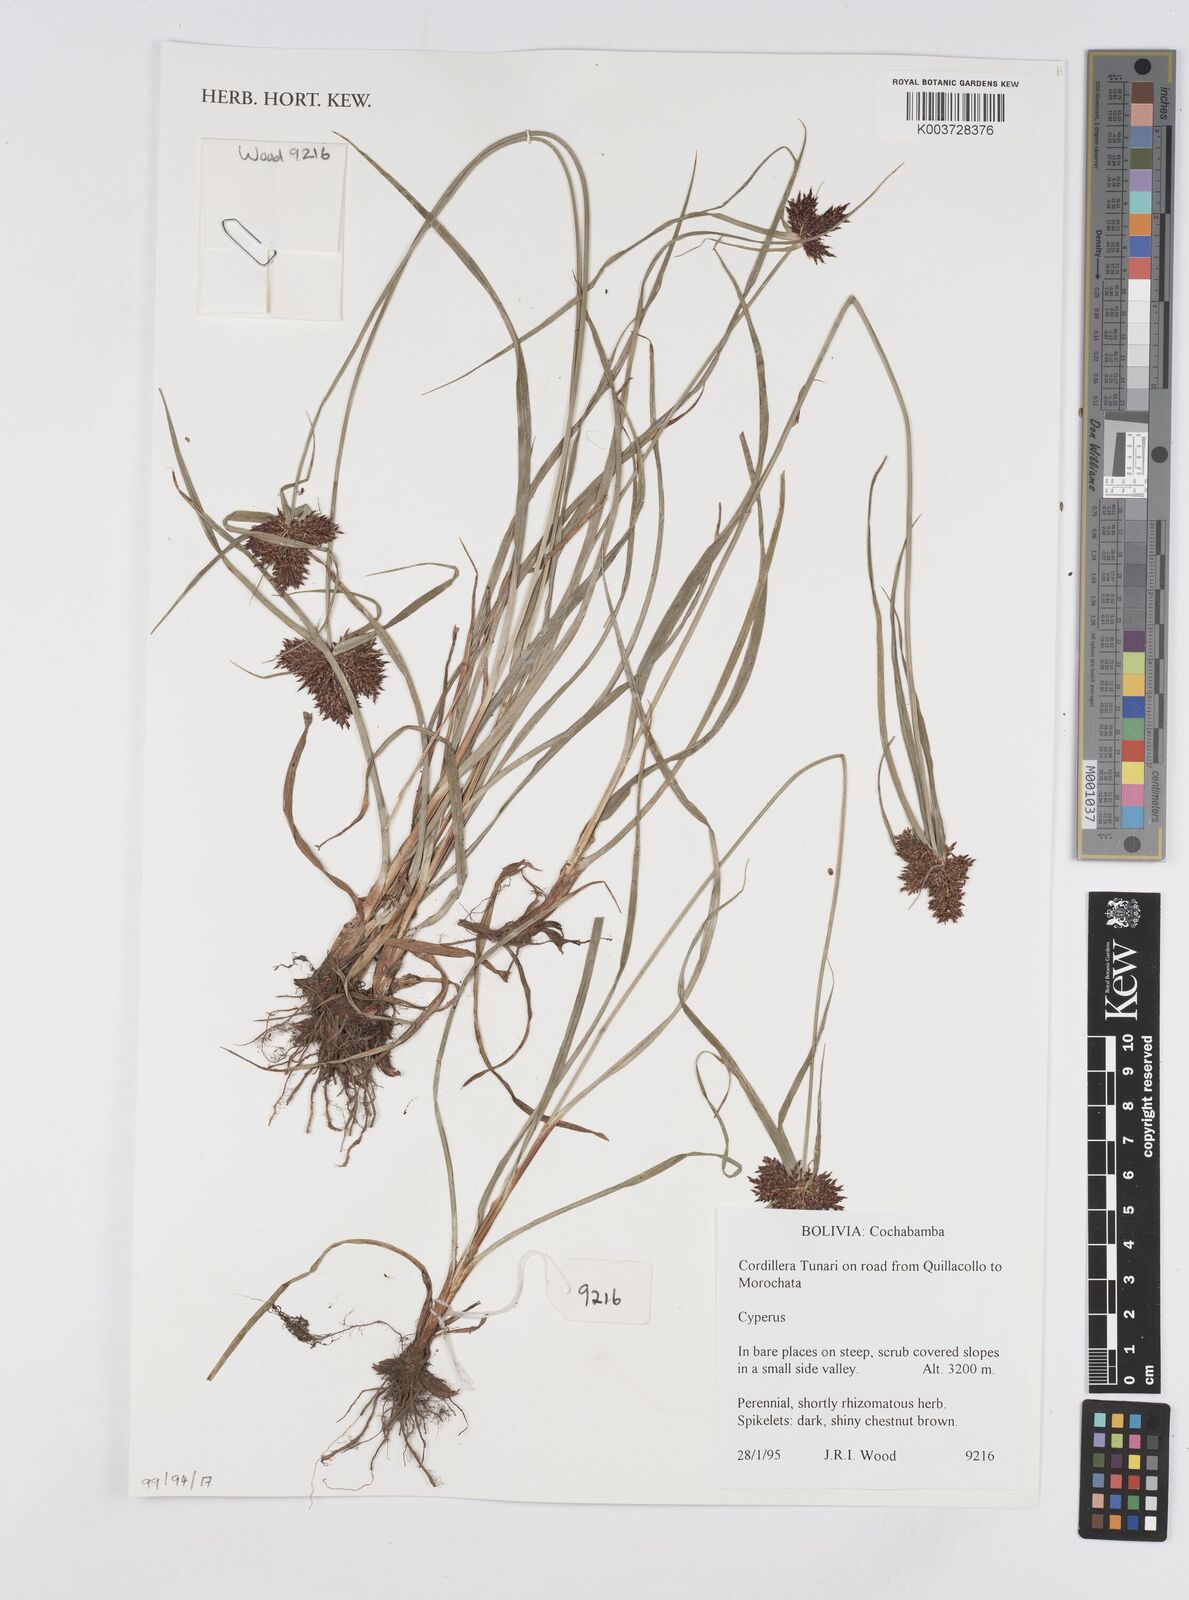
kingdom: Plantae
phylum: Tracheophyta
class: Liliopsida
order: Poales
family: Cyperaceae
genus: Cyperus
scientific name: Cyperus
